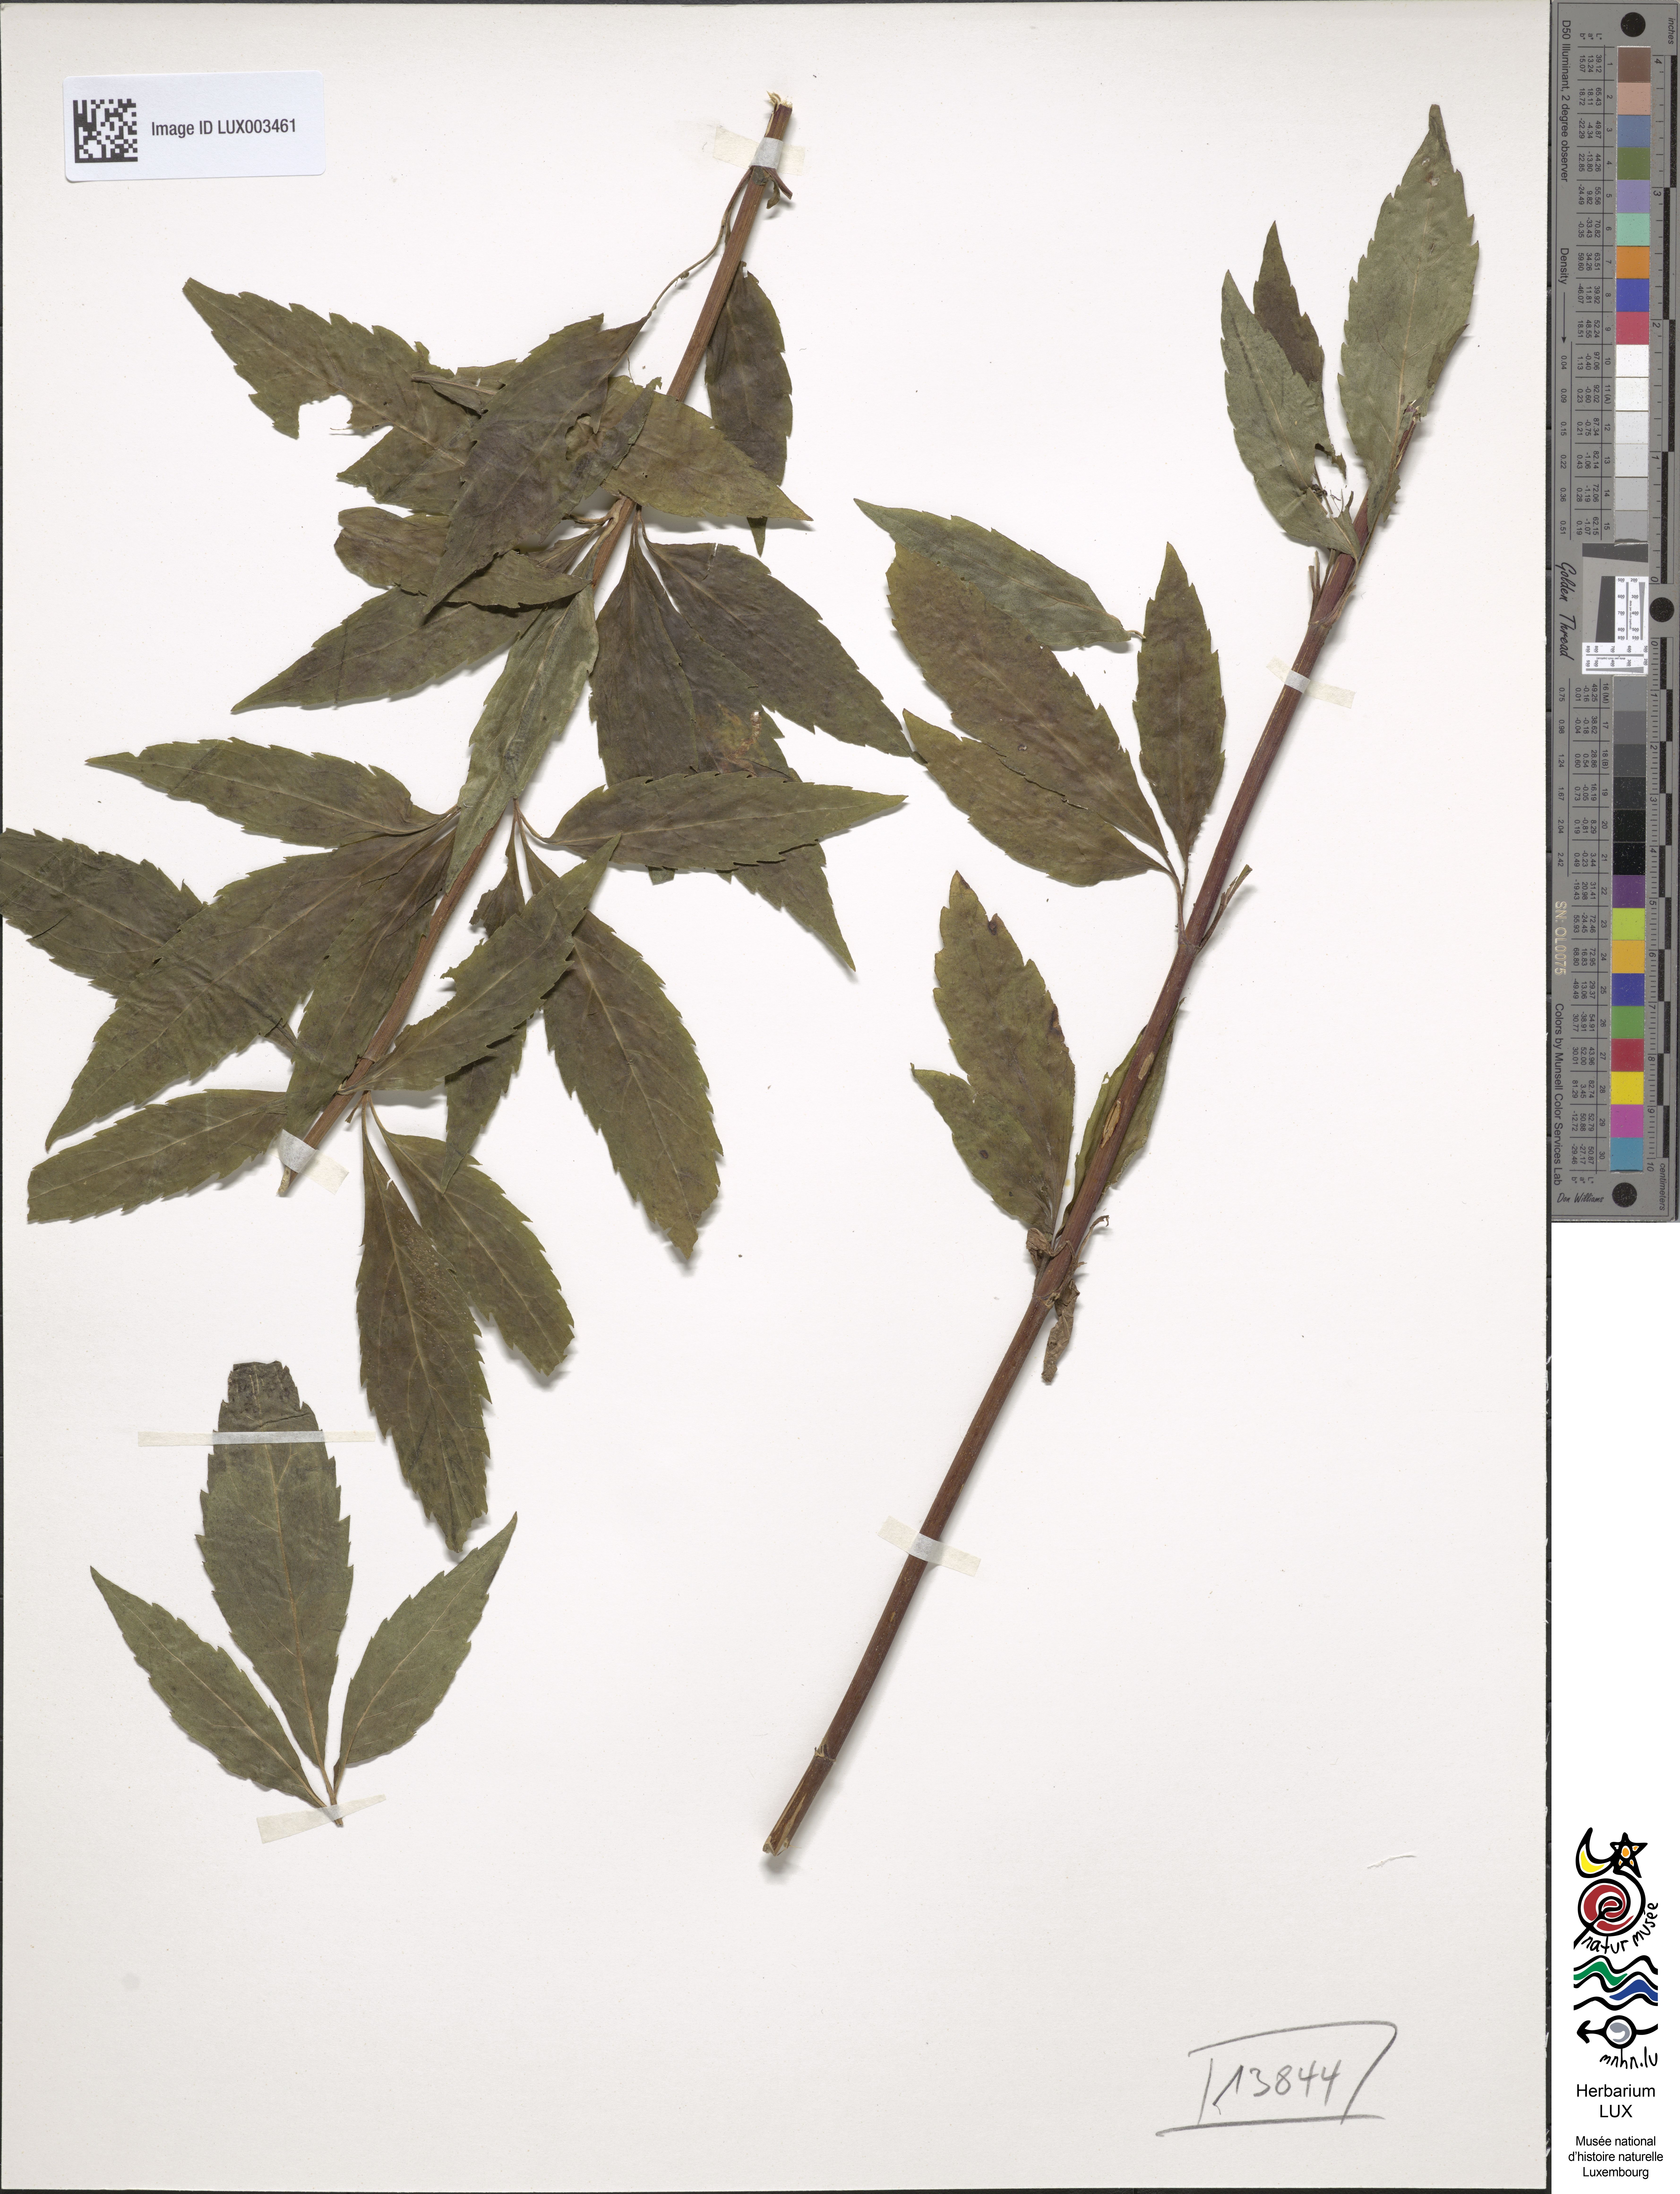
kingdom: Plantae
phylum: Tracheophyta
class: Magnoliopsida
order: Asterales
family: Asteraceae
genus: Eupatorium
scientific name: Eupatorium cannabinum
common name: Hemp-agrimony
